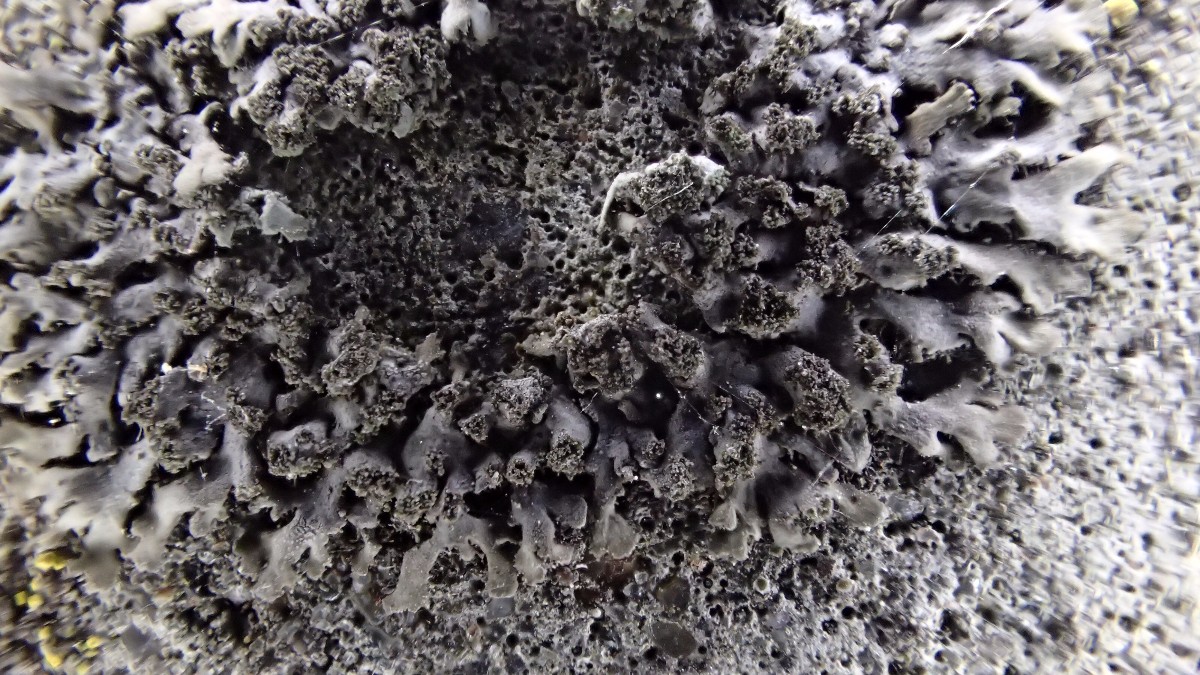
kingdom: Fungi
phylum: Ascomycota
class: Lecanoromycetes
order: Caliciales
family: Physciaceae
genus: Phaeophyscia
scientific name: Phaeophyscia orbicularis
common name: grågrøn rosetlav
